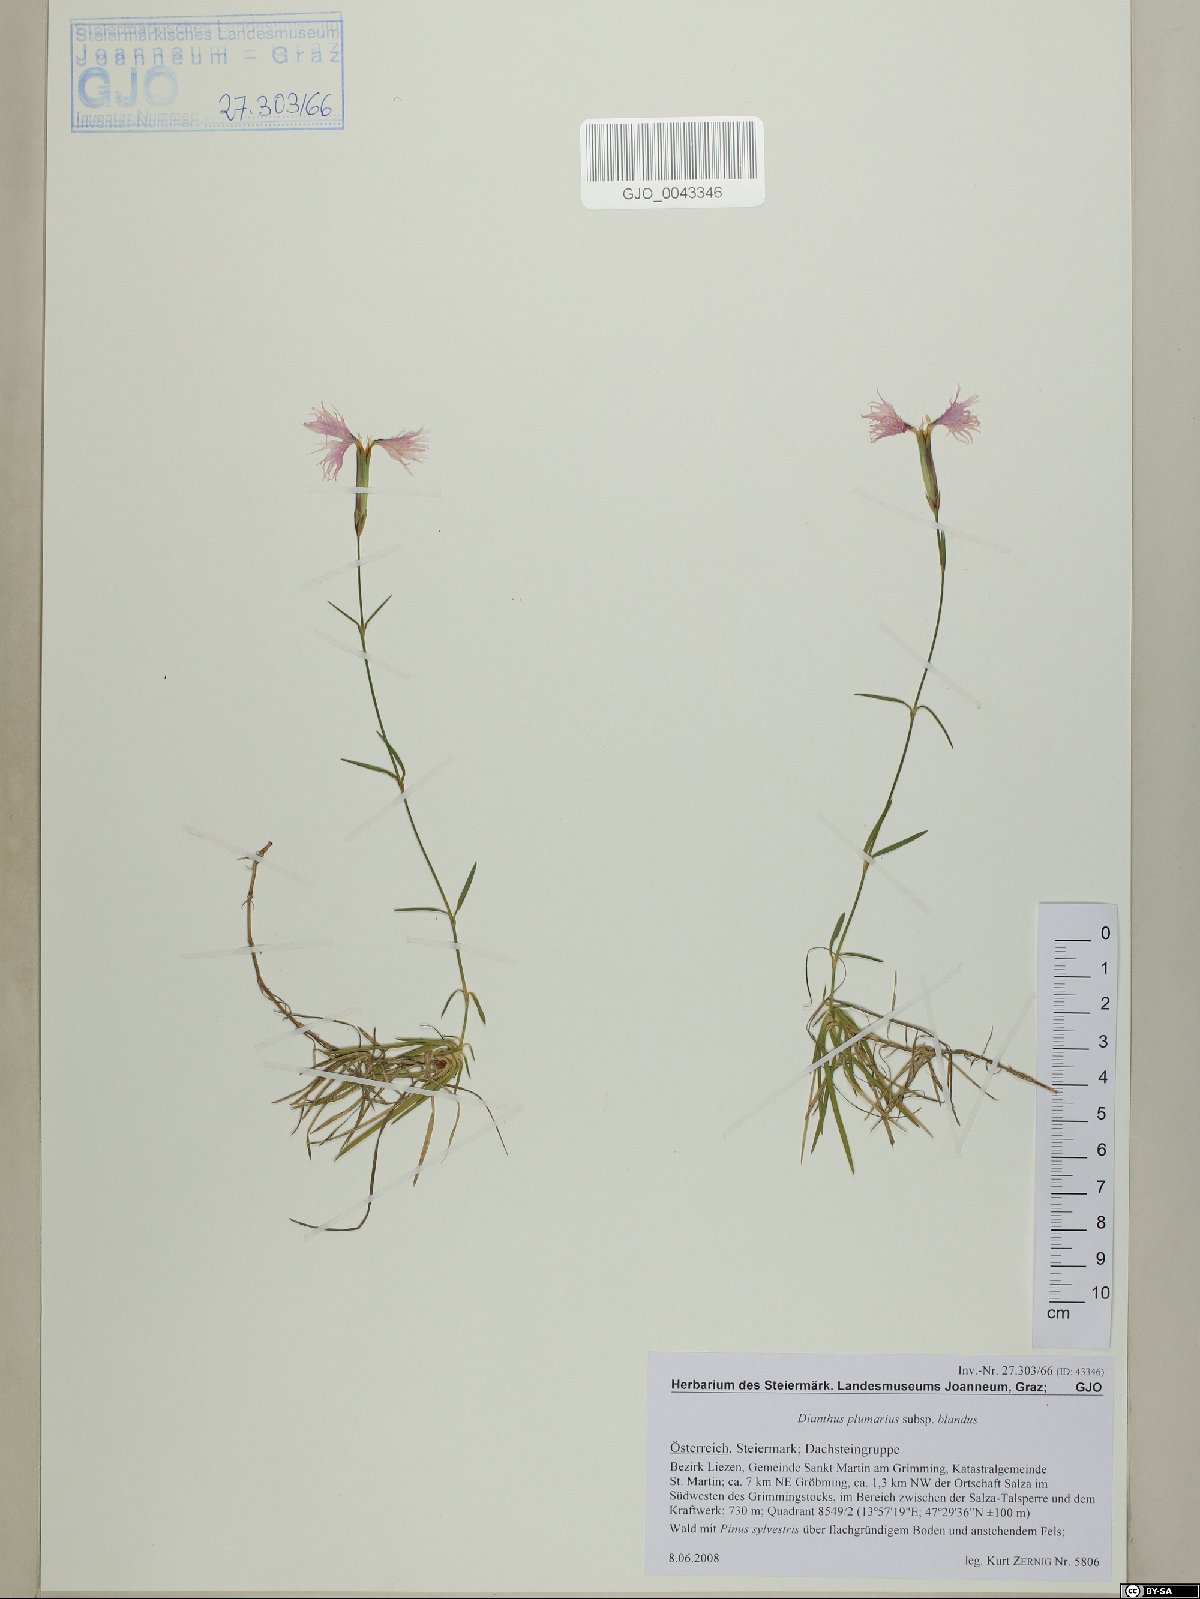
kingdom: Plantae
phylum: Tracheophyta
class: Magnoliopsida
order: Caryophyllales
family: Caryophyllaceae
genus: Dianthus
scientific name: Dianthus plumarius
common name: Pink
